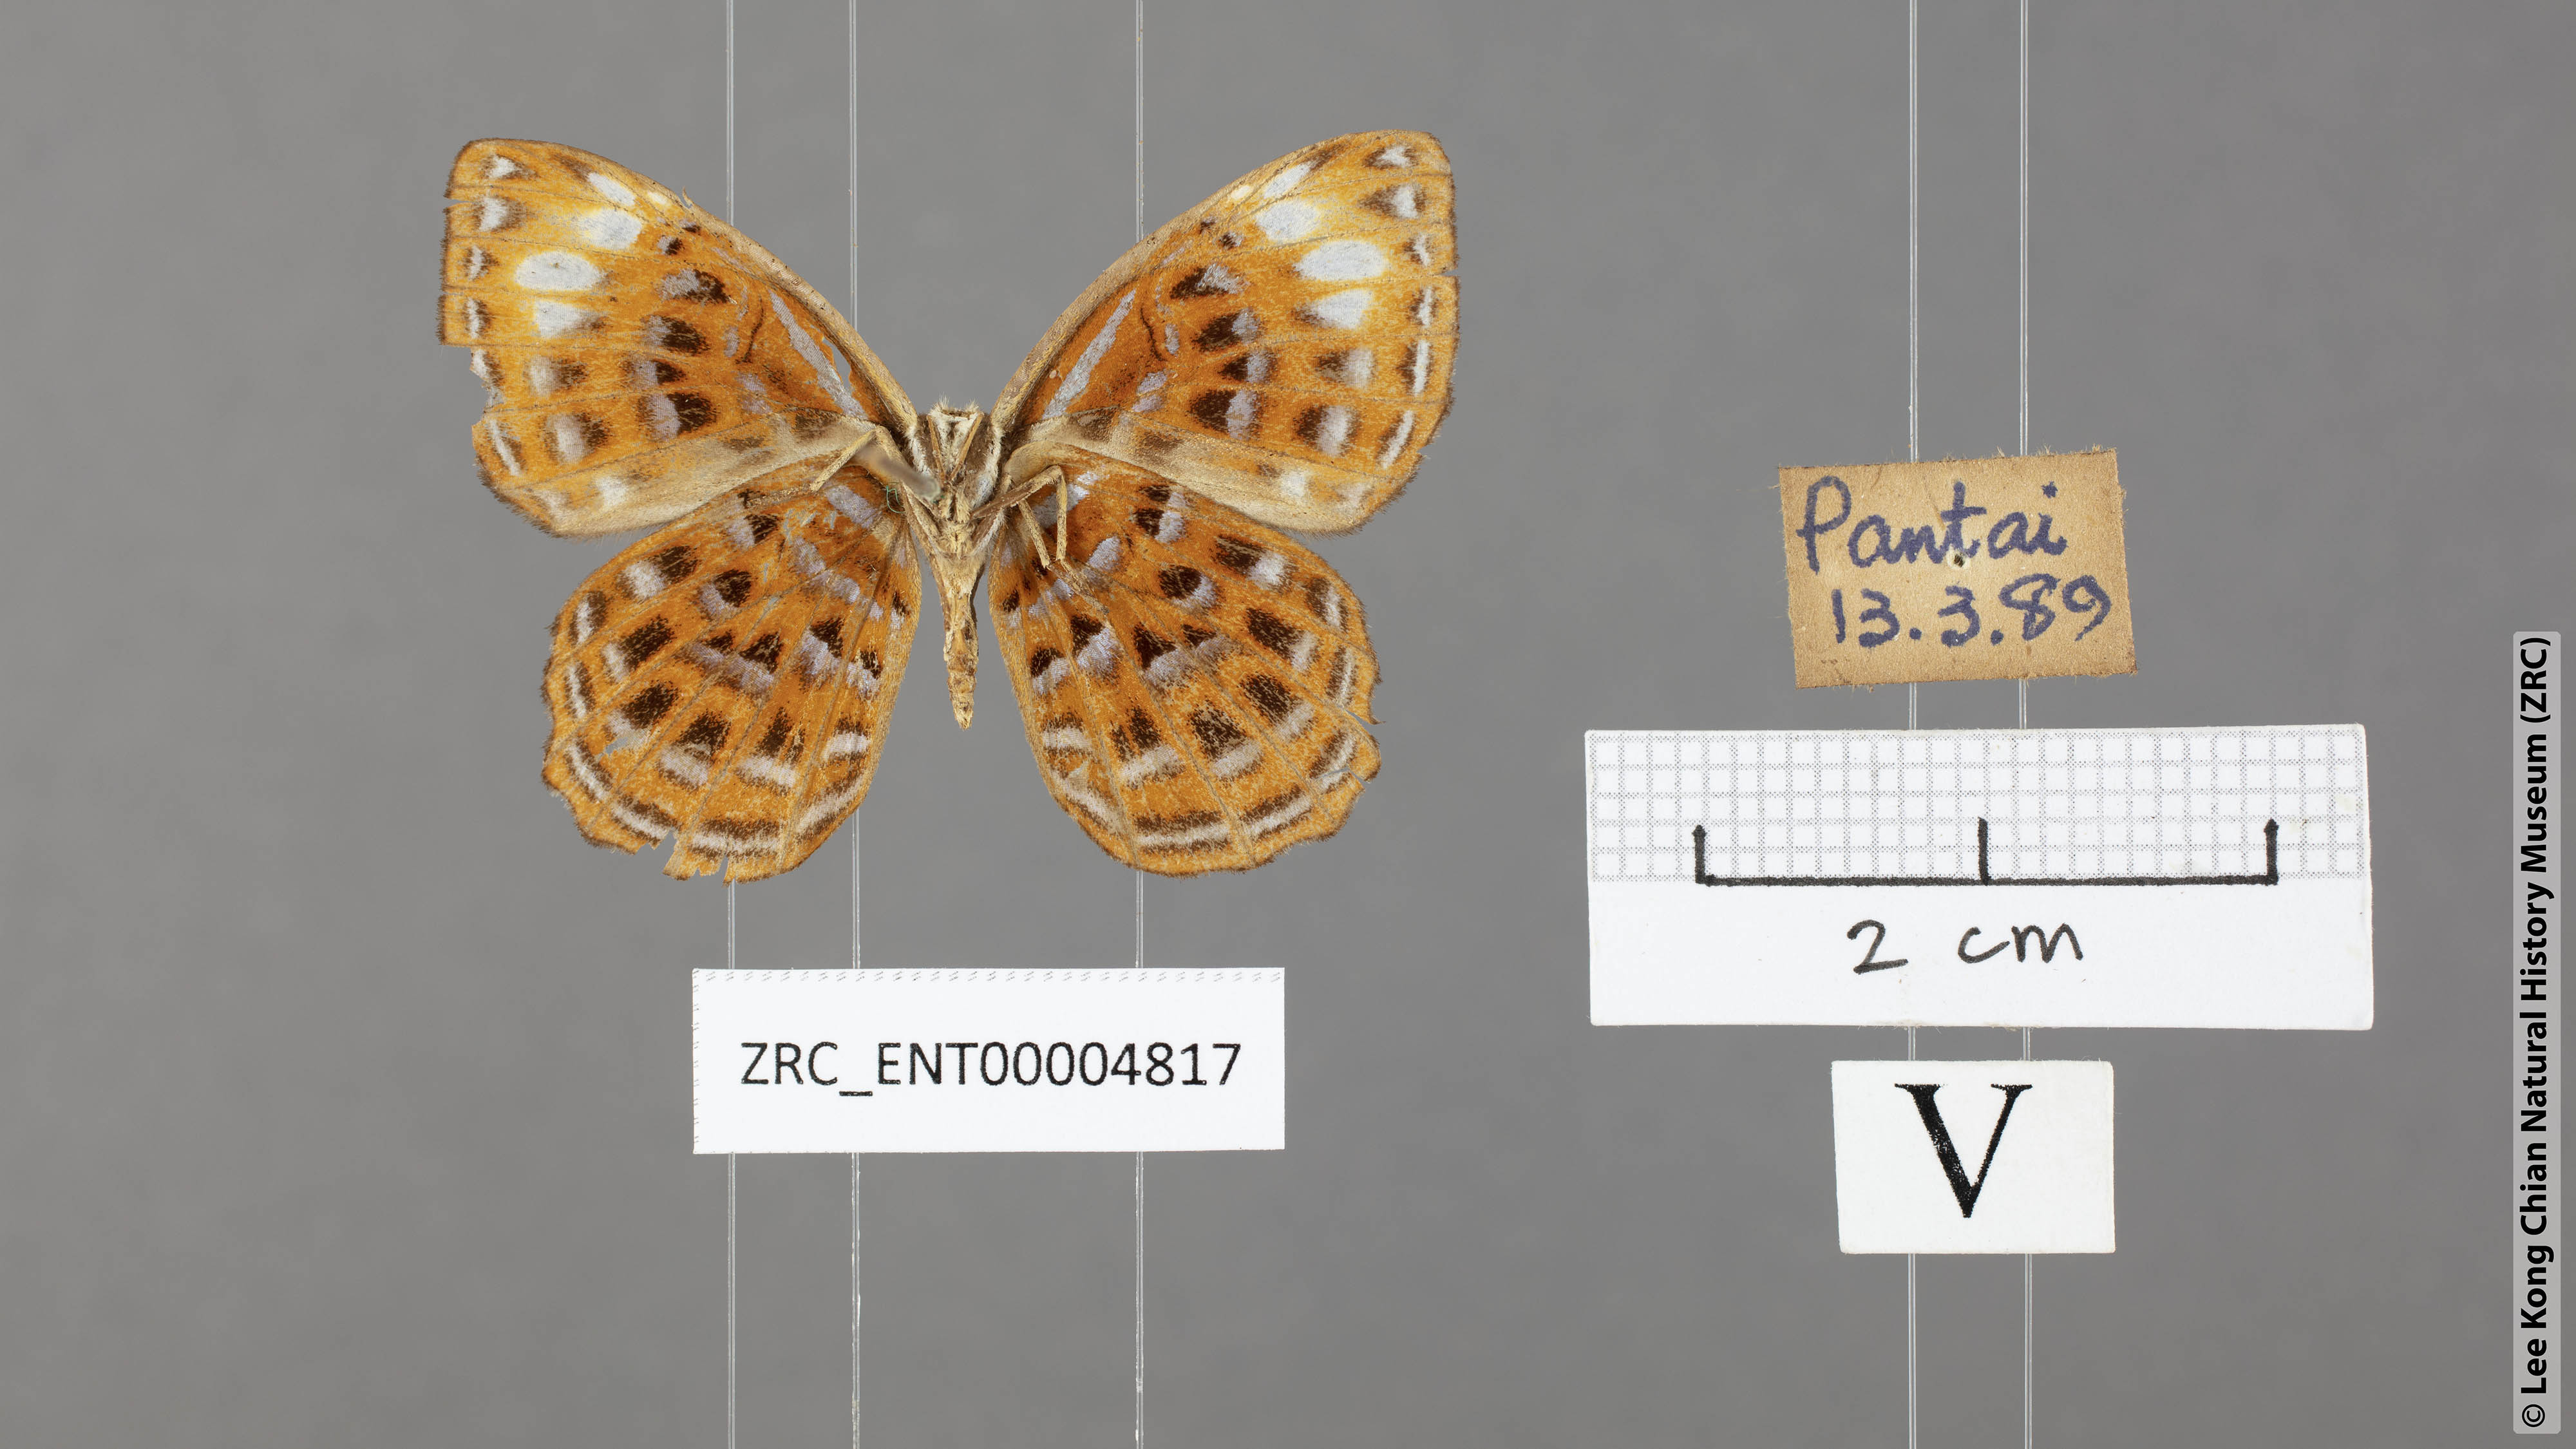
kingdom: Animalia
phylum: Arthropoda
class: Insecta
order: Lepidoptera
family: Riodinidae
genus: Laxita
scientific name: Laxita thuisto
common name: Lesser harlequin
